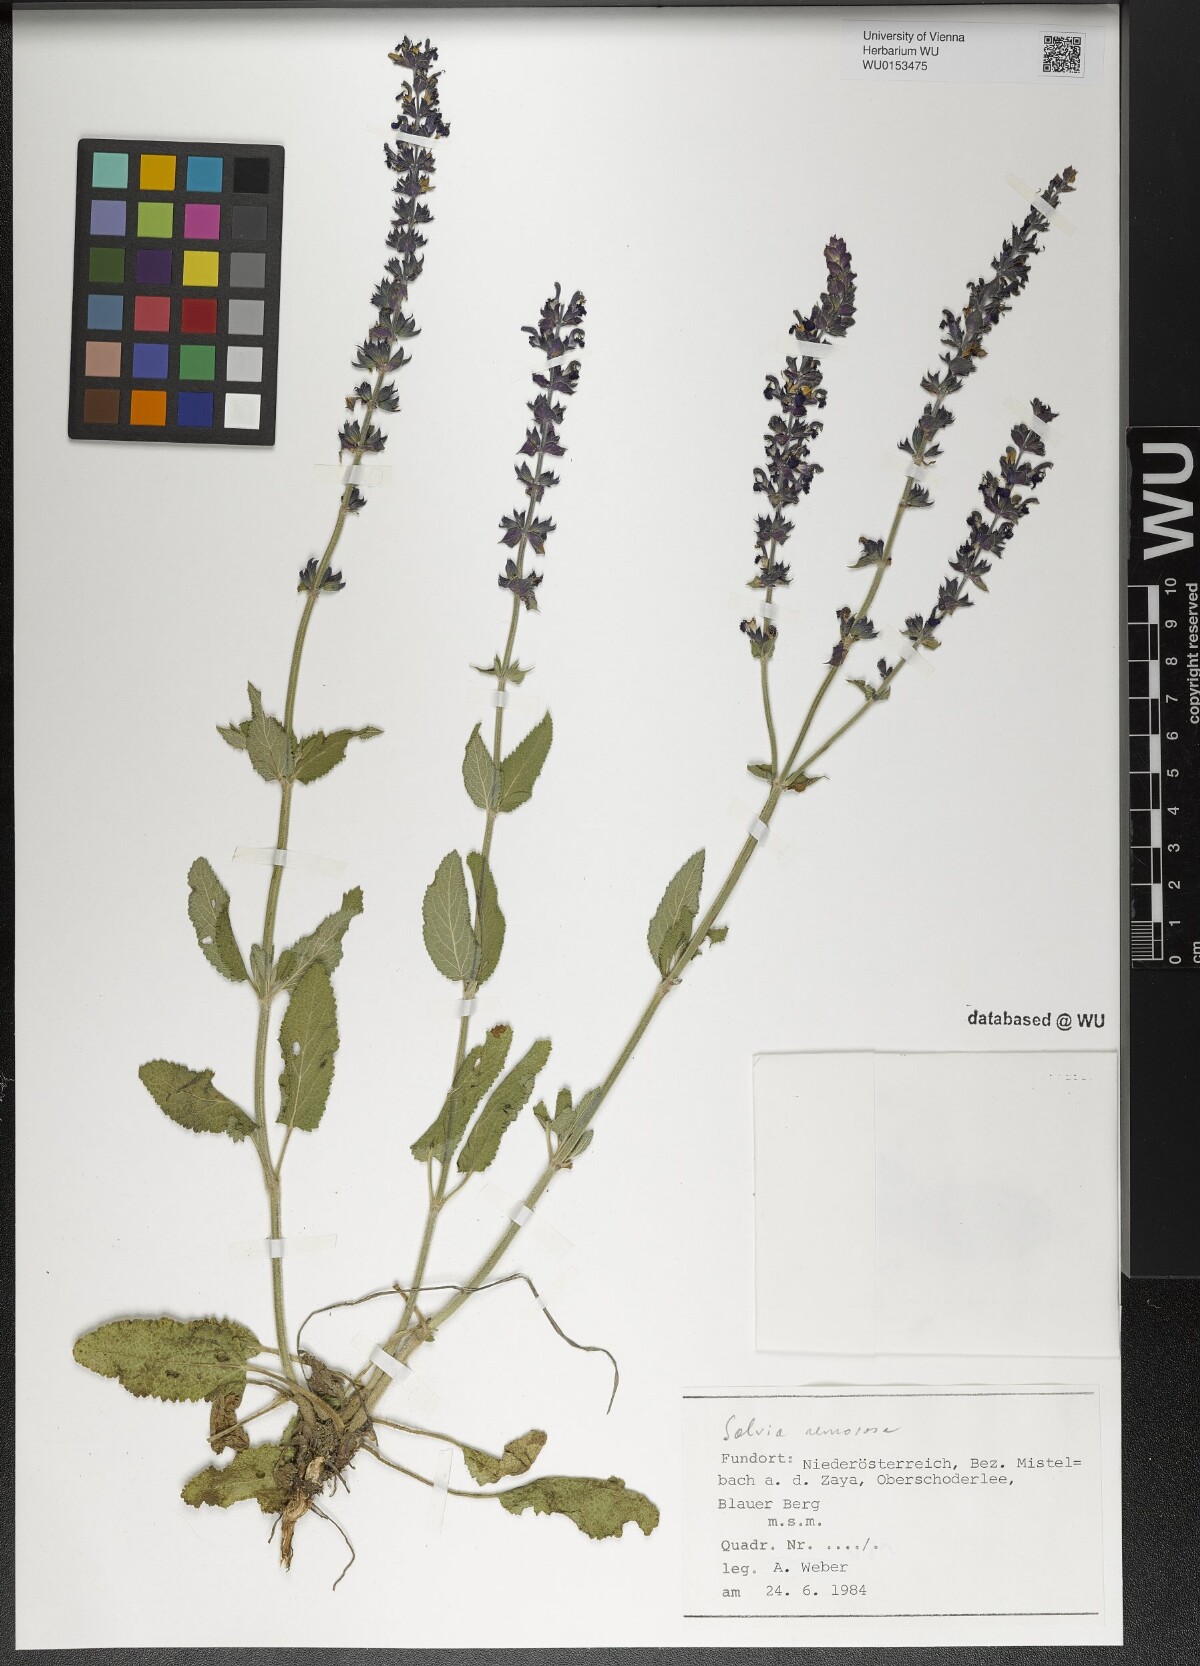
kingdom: Plantae
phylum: Tracheophyta
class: Magnoliopsida
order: Lamiales
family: Lamiaceae
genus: Salvia
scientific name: Salvia nemorosa
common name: Balkan clary
